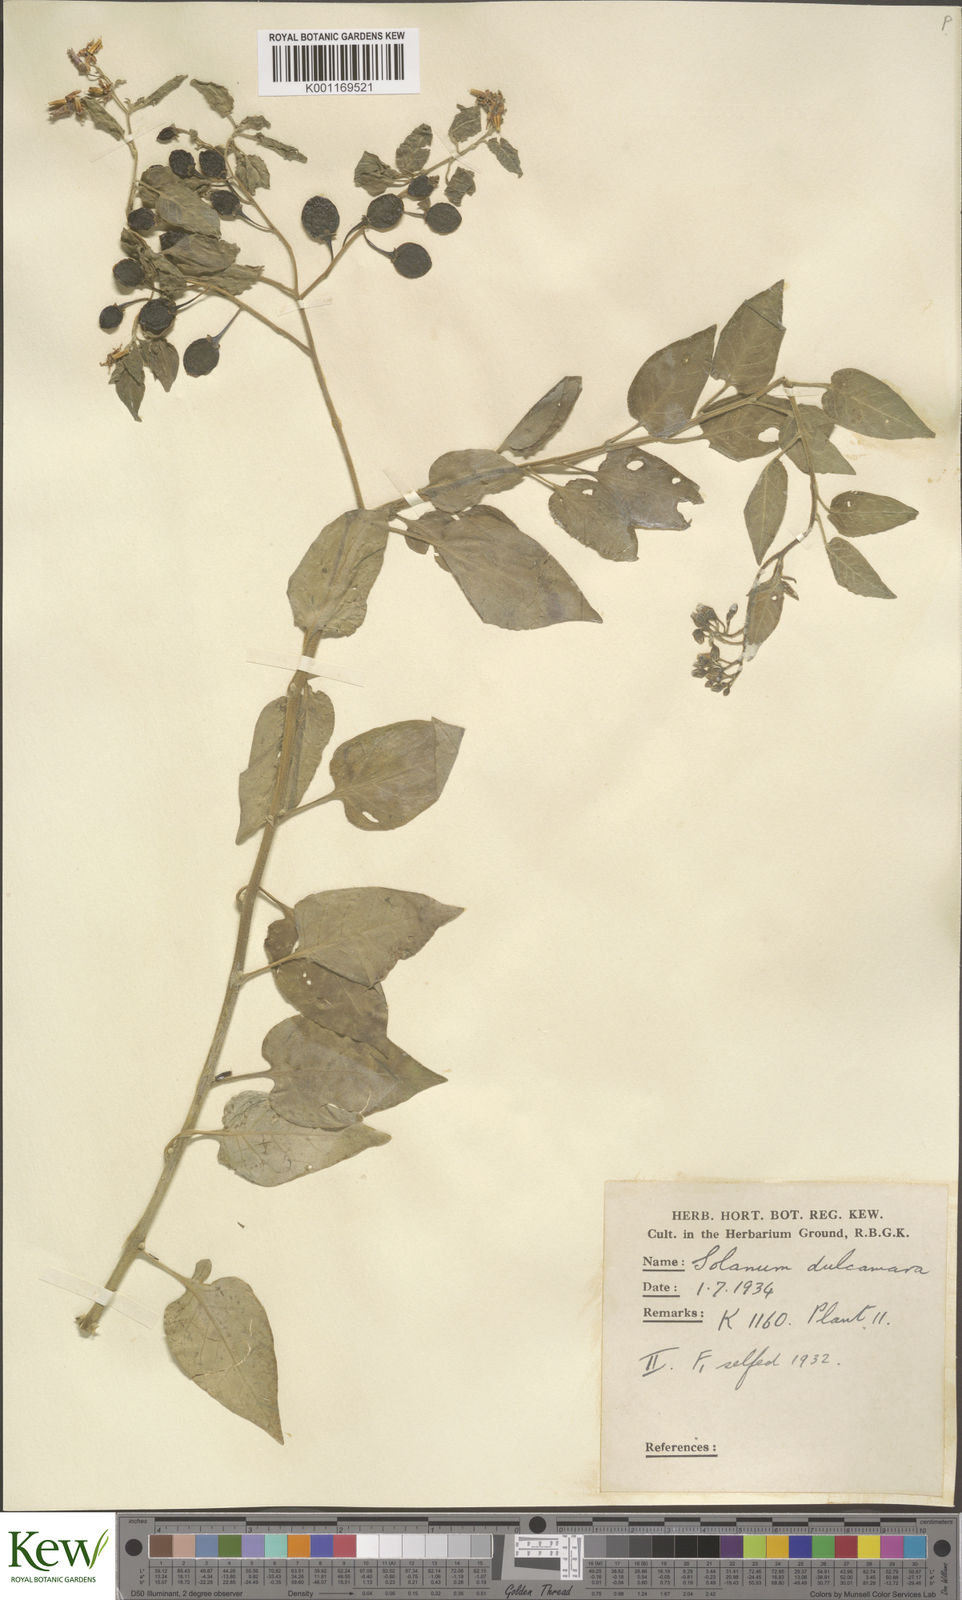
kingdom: Plantae
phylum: Tracheophyta
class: Magnoliopsida
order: Solanales
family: Solanaceae
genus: Solanum
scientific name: Solanum dulcamara
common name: Climbing nightshade
